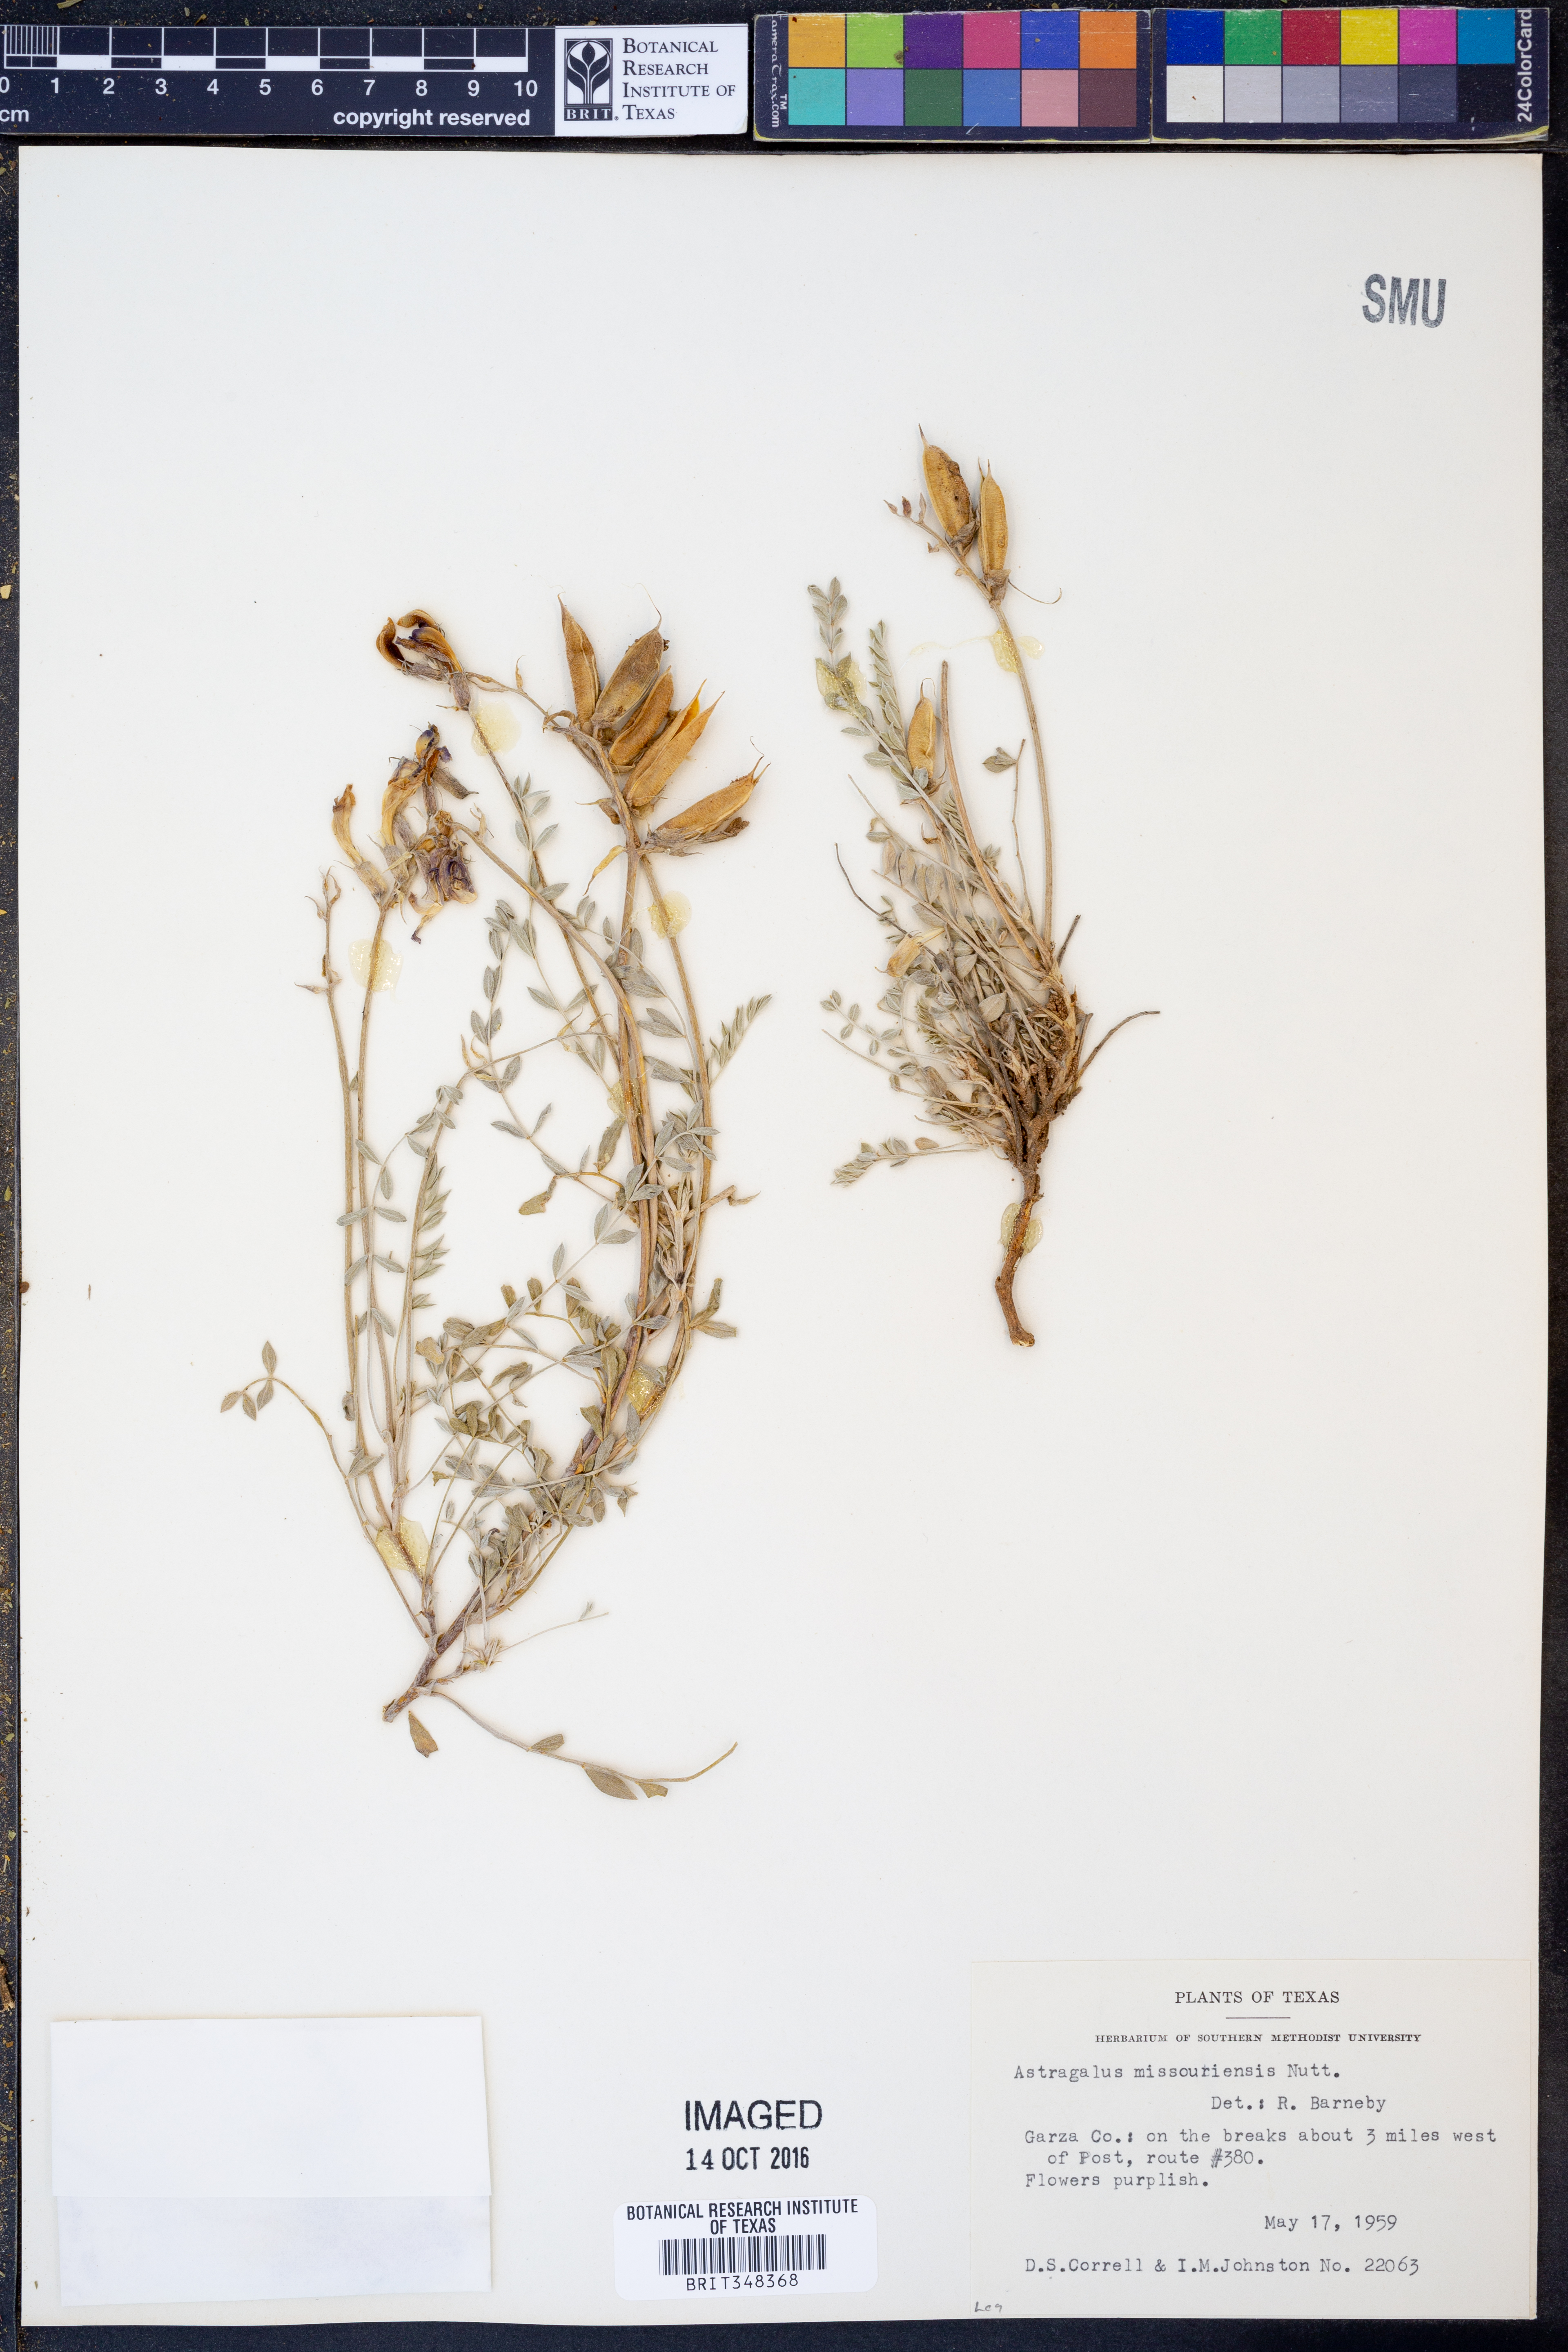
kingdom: Plantae
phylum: Tracheophyta
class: Magnoliopsida
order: Fabales
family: Fabaceae
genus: Astragalus
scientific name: Astragalus missouriensis
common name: Missouri milk-vetch
